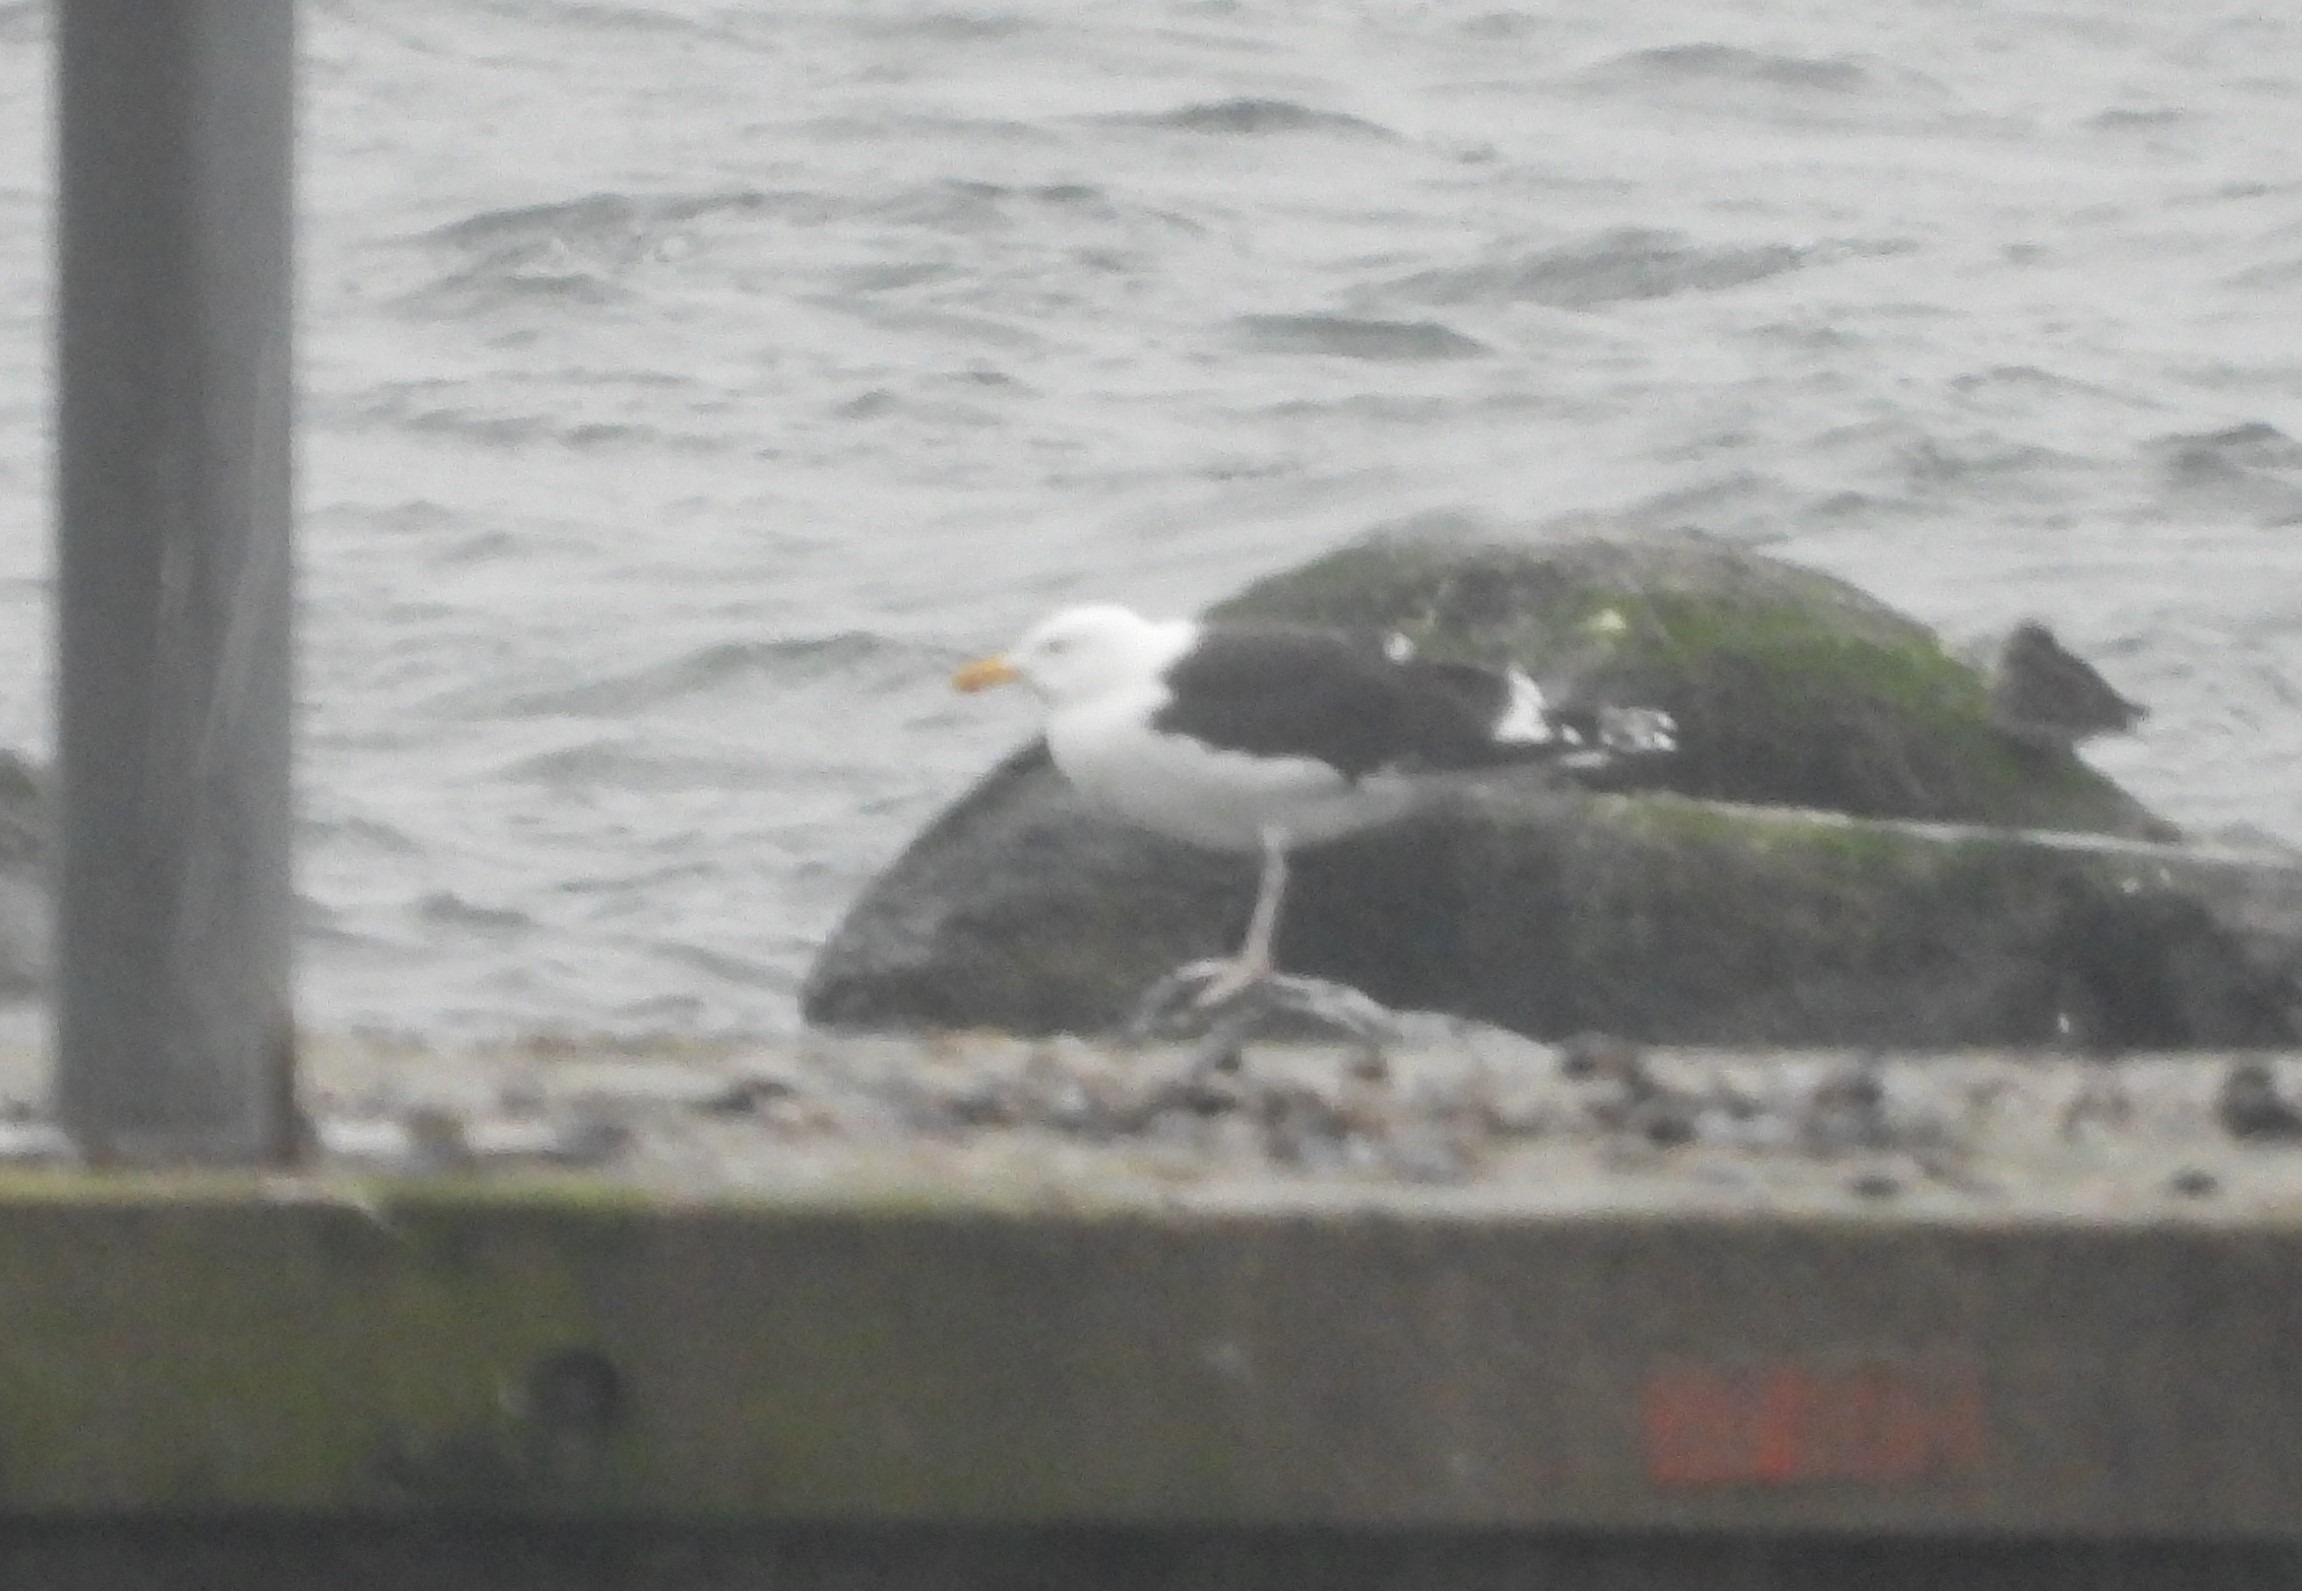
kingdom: Animalia
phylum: Chordata
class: Aves
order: Charadriiformes
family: Laridae
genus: Larus
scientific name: Larus marinus
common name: Svartbag
